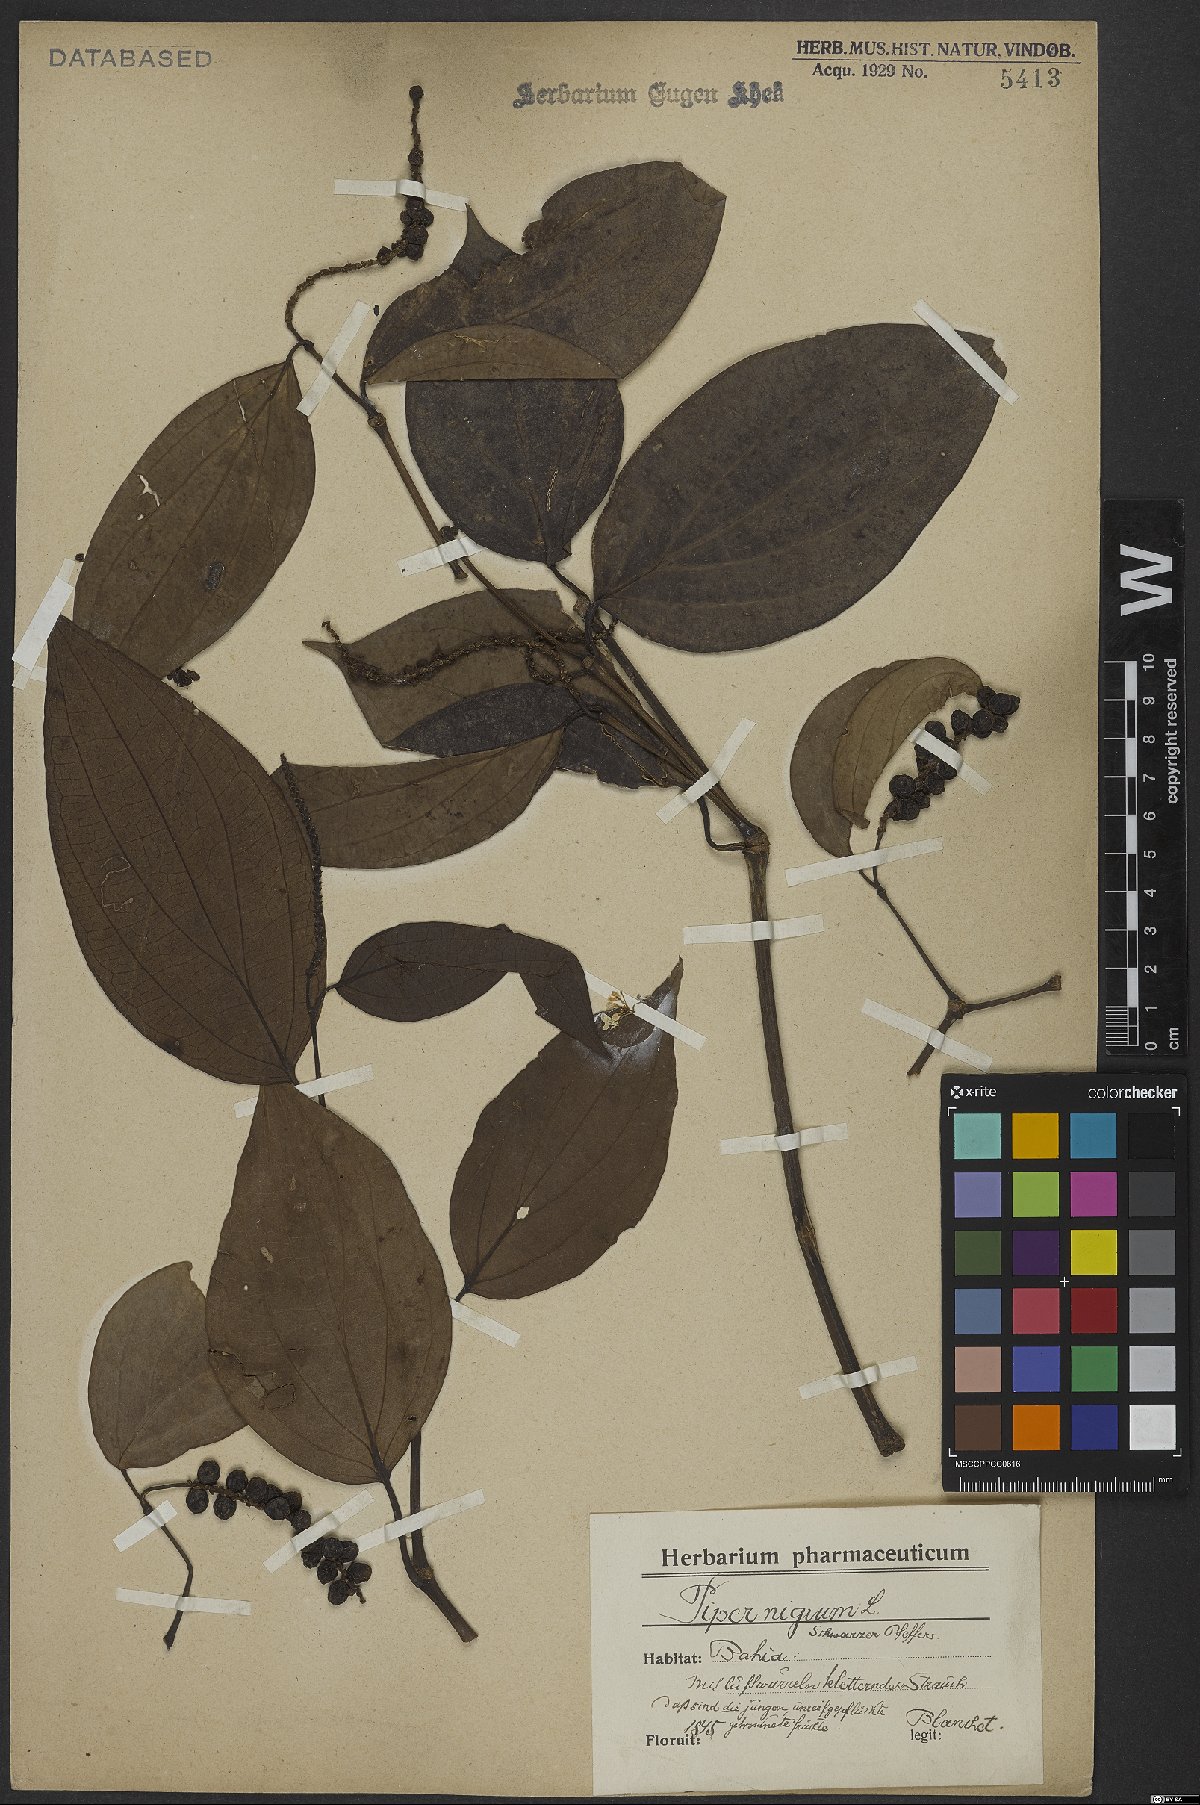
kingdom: Plantae
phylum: Tracheophyta
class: Magnoliopsida
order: Piperales
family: Piperaceae
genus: Piper
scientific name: Piper nigrum
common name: Black pepper
